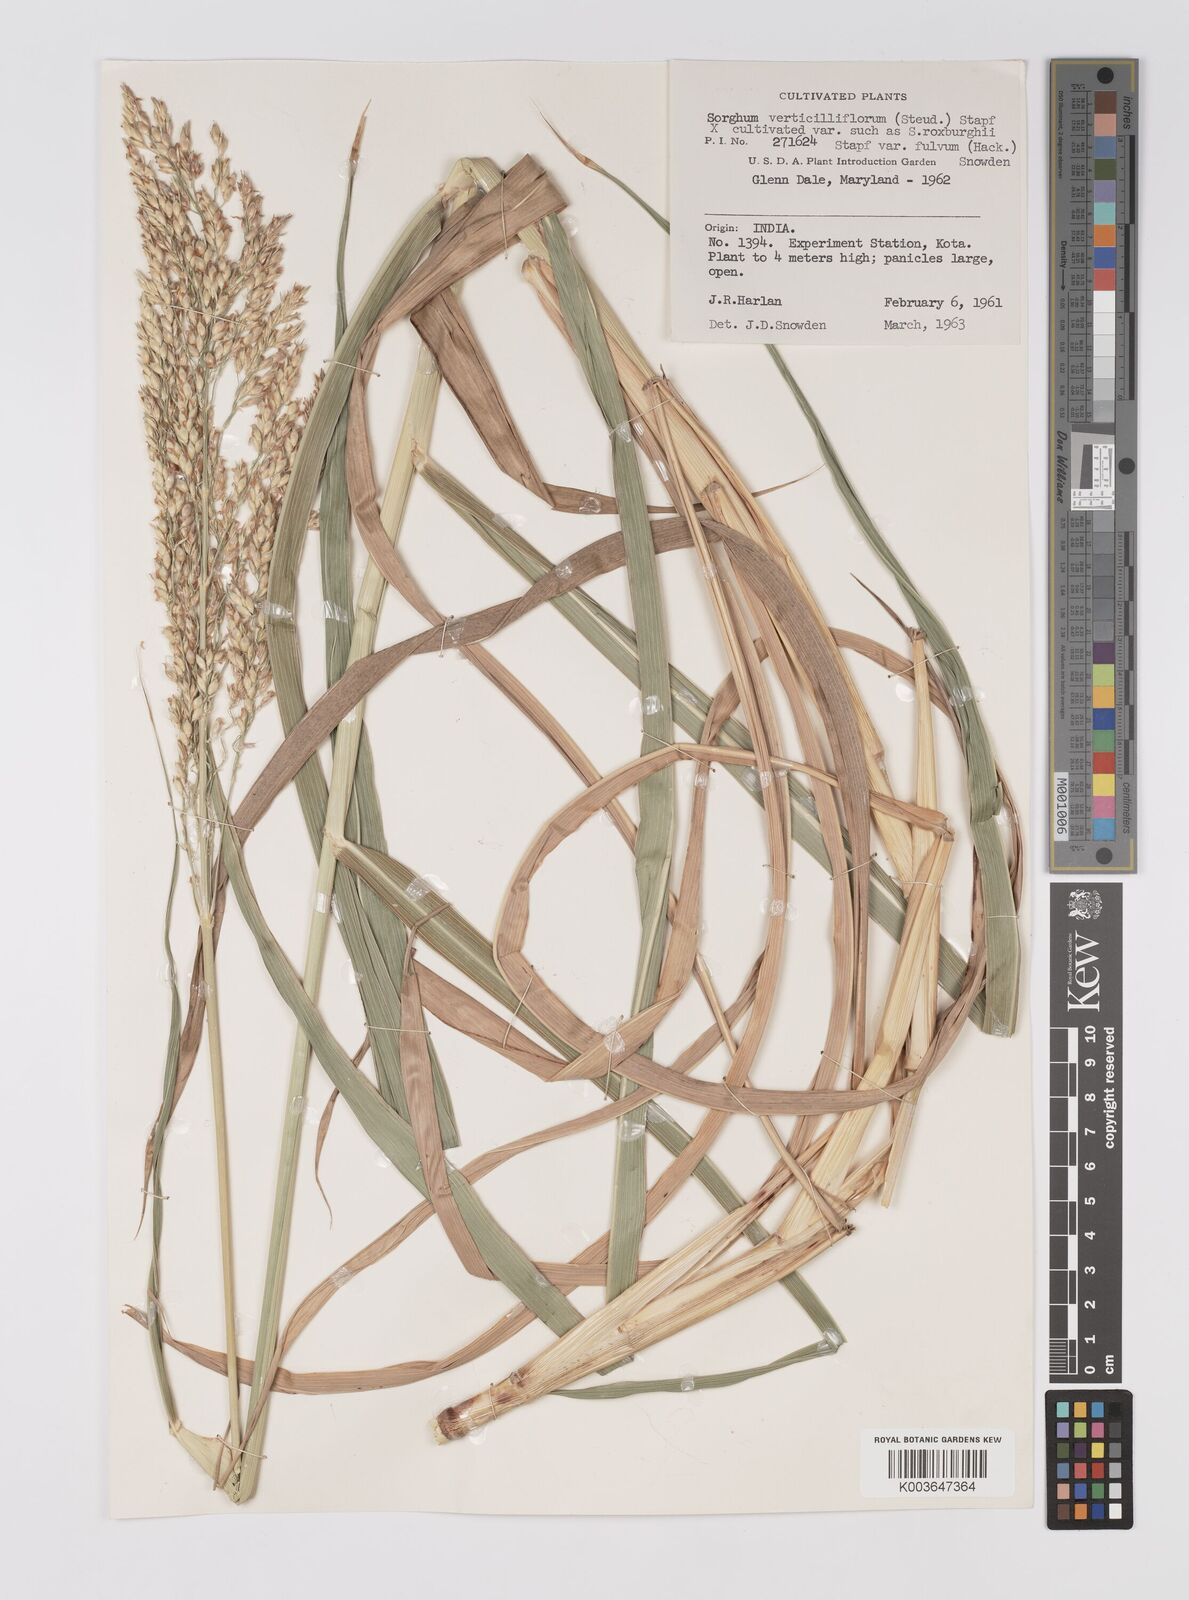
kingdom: Plantae
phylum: Tracheophyta
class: Liliopsida
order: Poales
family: Poaceae
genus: Sorghum
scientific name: Sorghum drummondii
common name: Sudangrass
